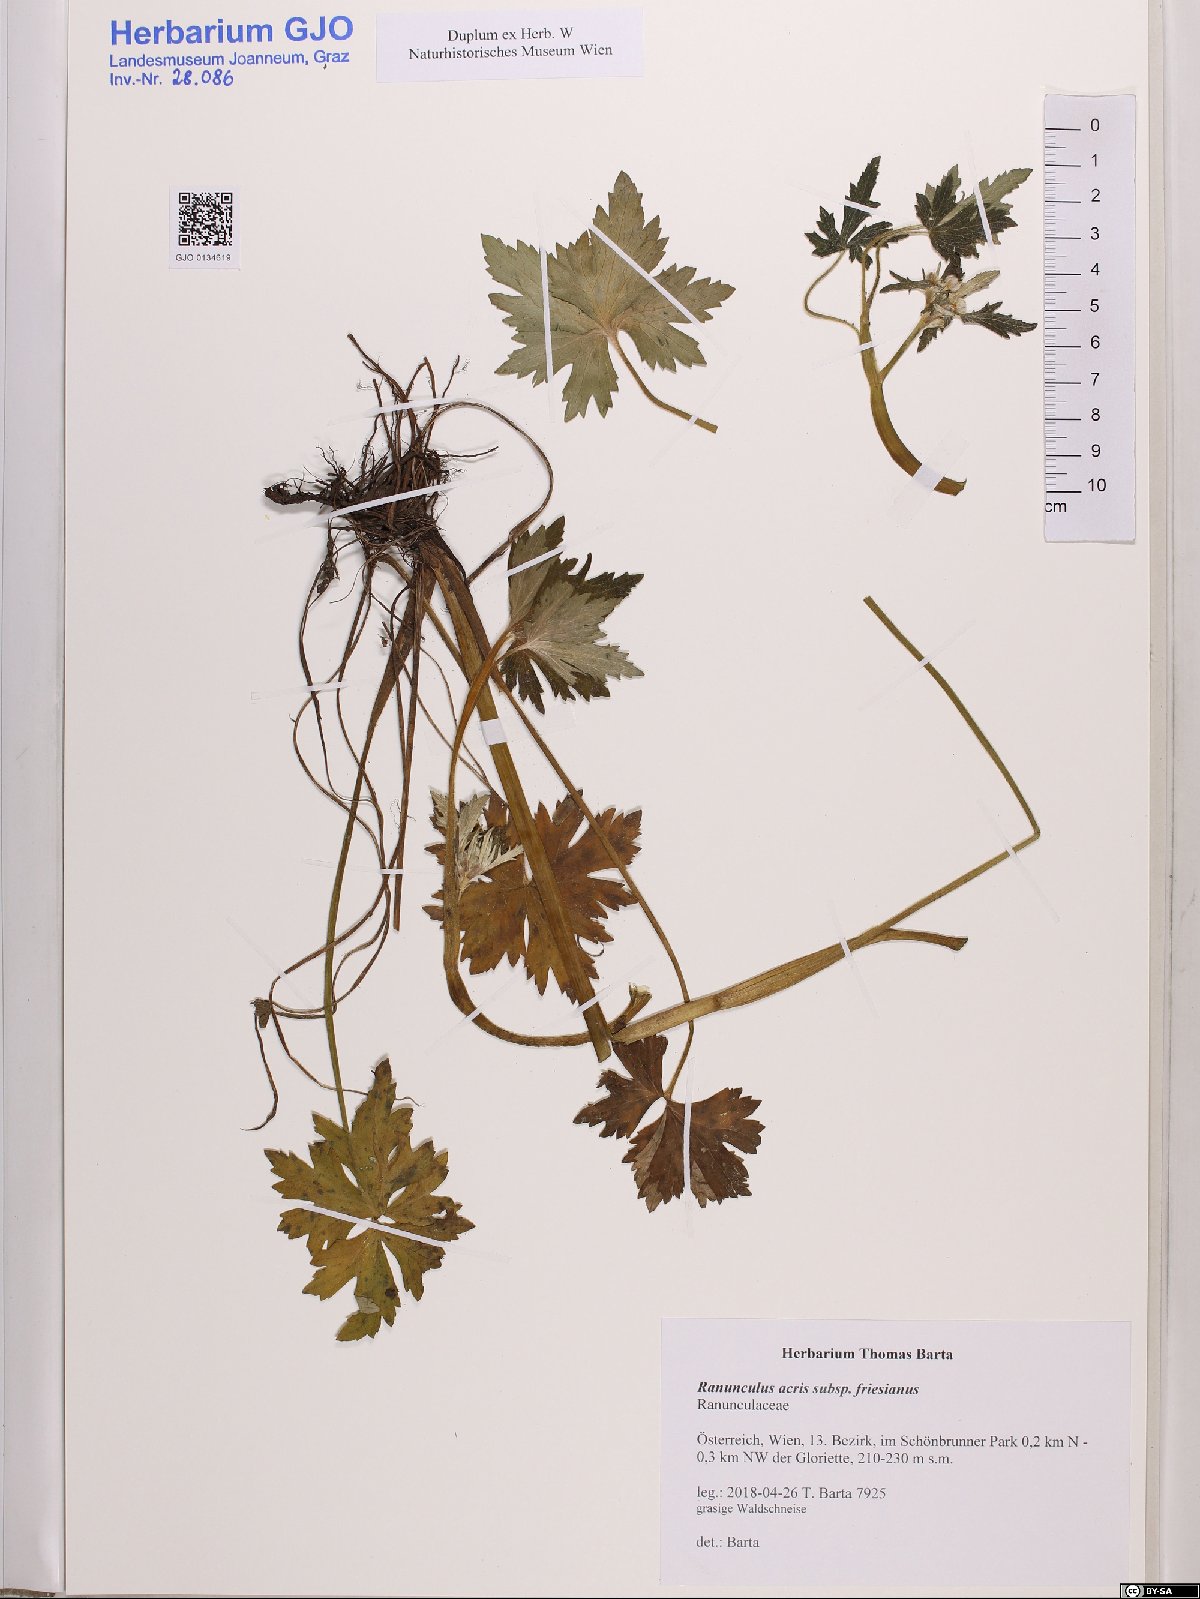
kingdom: Plantae
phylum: Tracheophyta
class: Magnoliopsida
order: Ranunculales
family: Ranunculaceae
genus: Ranunculus
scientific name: Ranunculus acris
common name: Meadow buttercup
